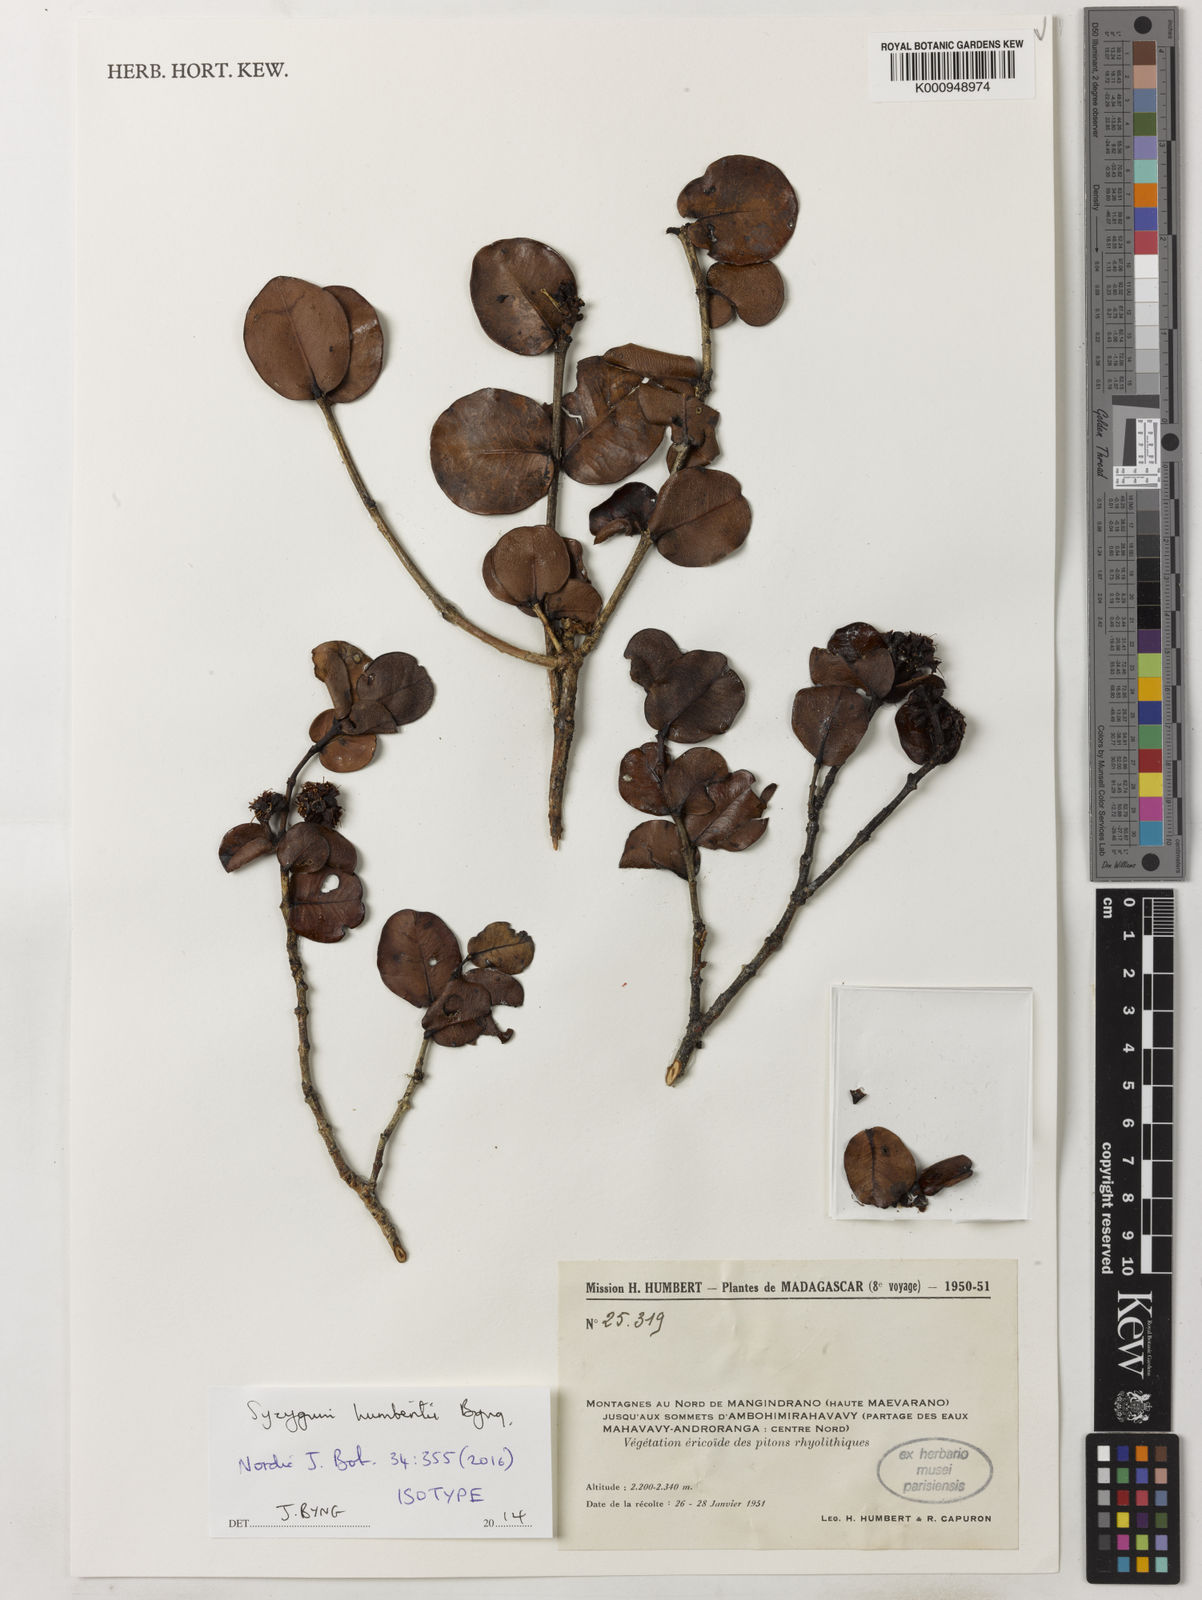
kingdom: Plantae
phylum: Tracheophyta
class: Magnoliopsida
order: Myrtales
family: Myrtaceae
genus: Syzygium
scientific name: Syzygium humbertii
